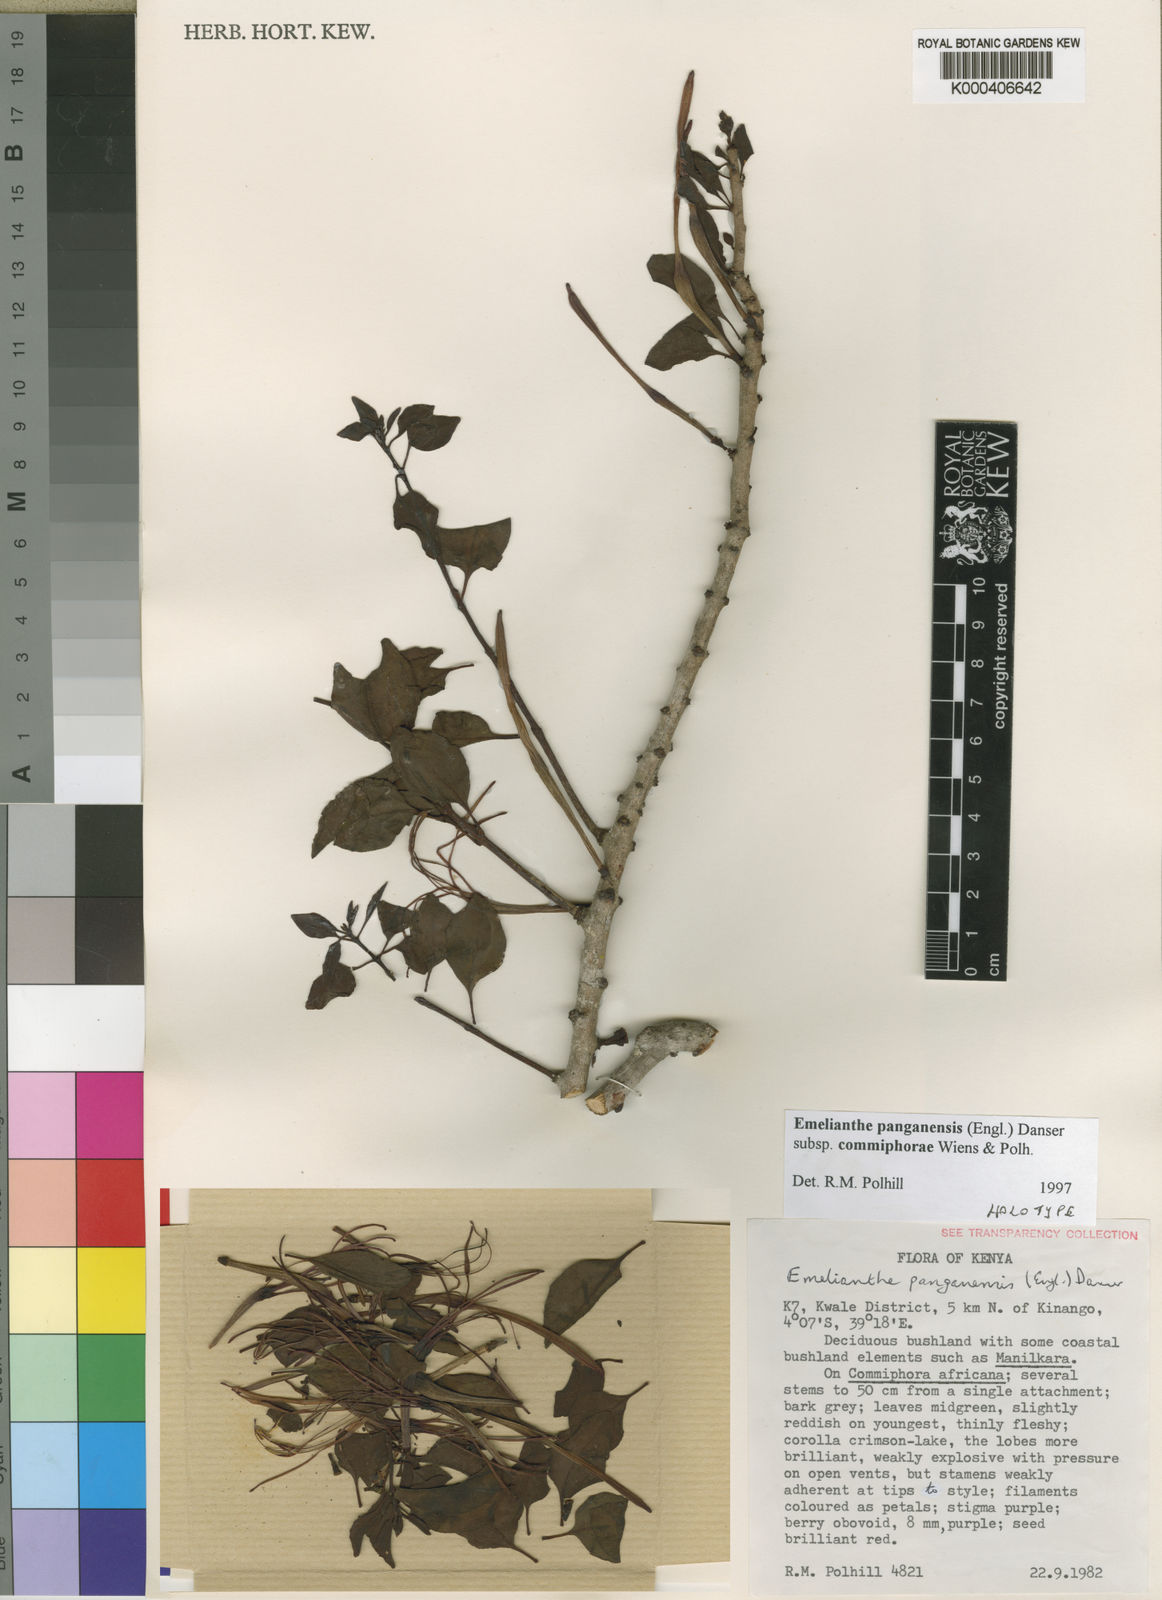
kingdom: Plantae
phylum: Tracheophyta
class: Magnoliopsida
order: Santalales
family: Loranthaceae
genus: Emelianthe
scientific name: Emelianthe panganensis
